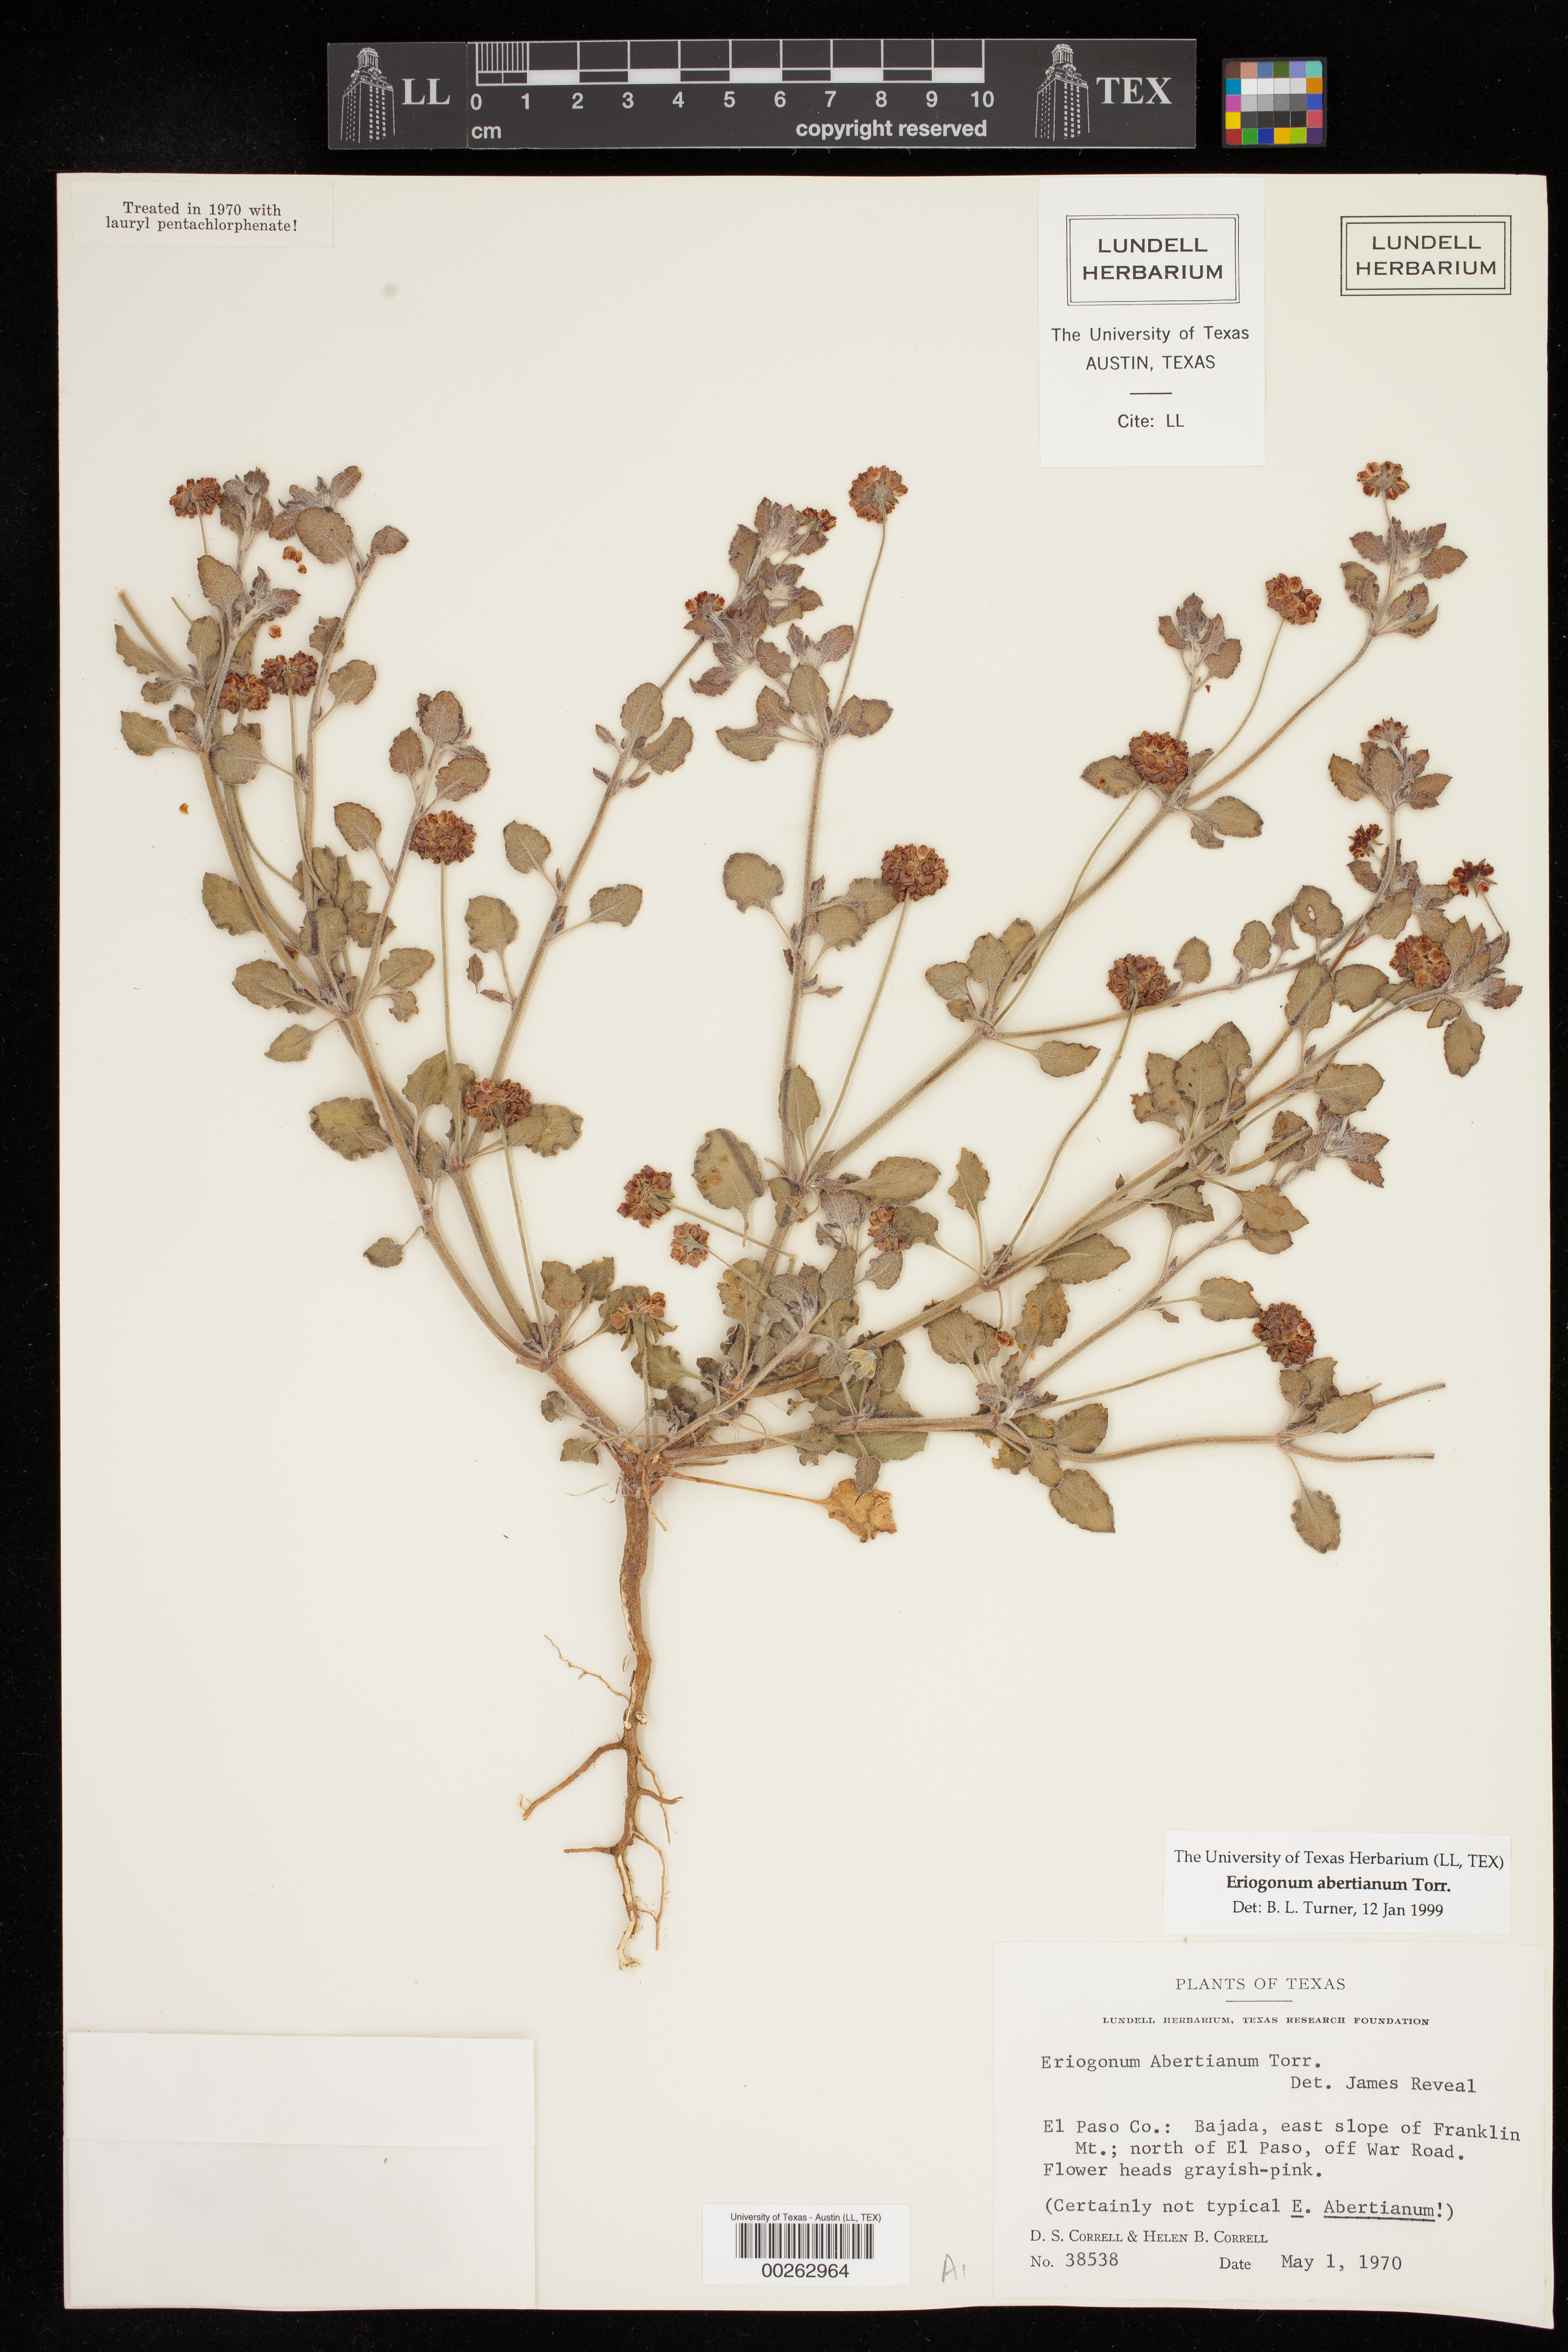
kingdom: Plantae
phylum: Tracheophyta
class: Magnoliopsida
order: Caryophyllales
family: Polygonaceae
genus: Eriogonum
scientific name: Eriogonum abertianum
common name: Abert's wild buckwheat
